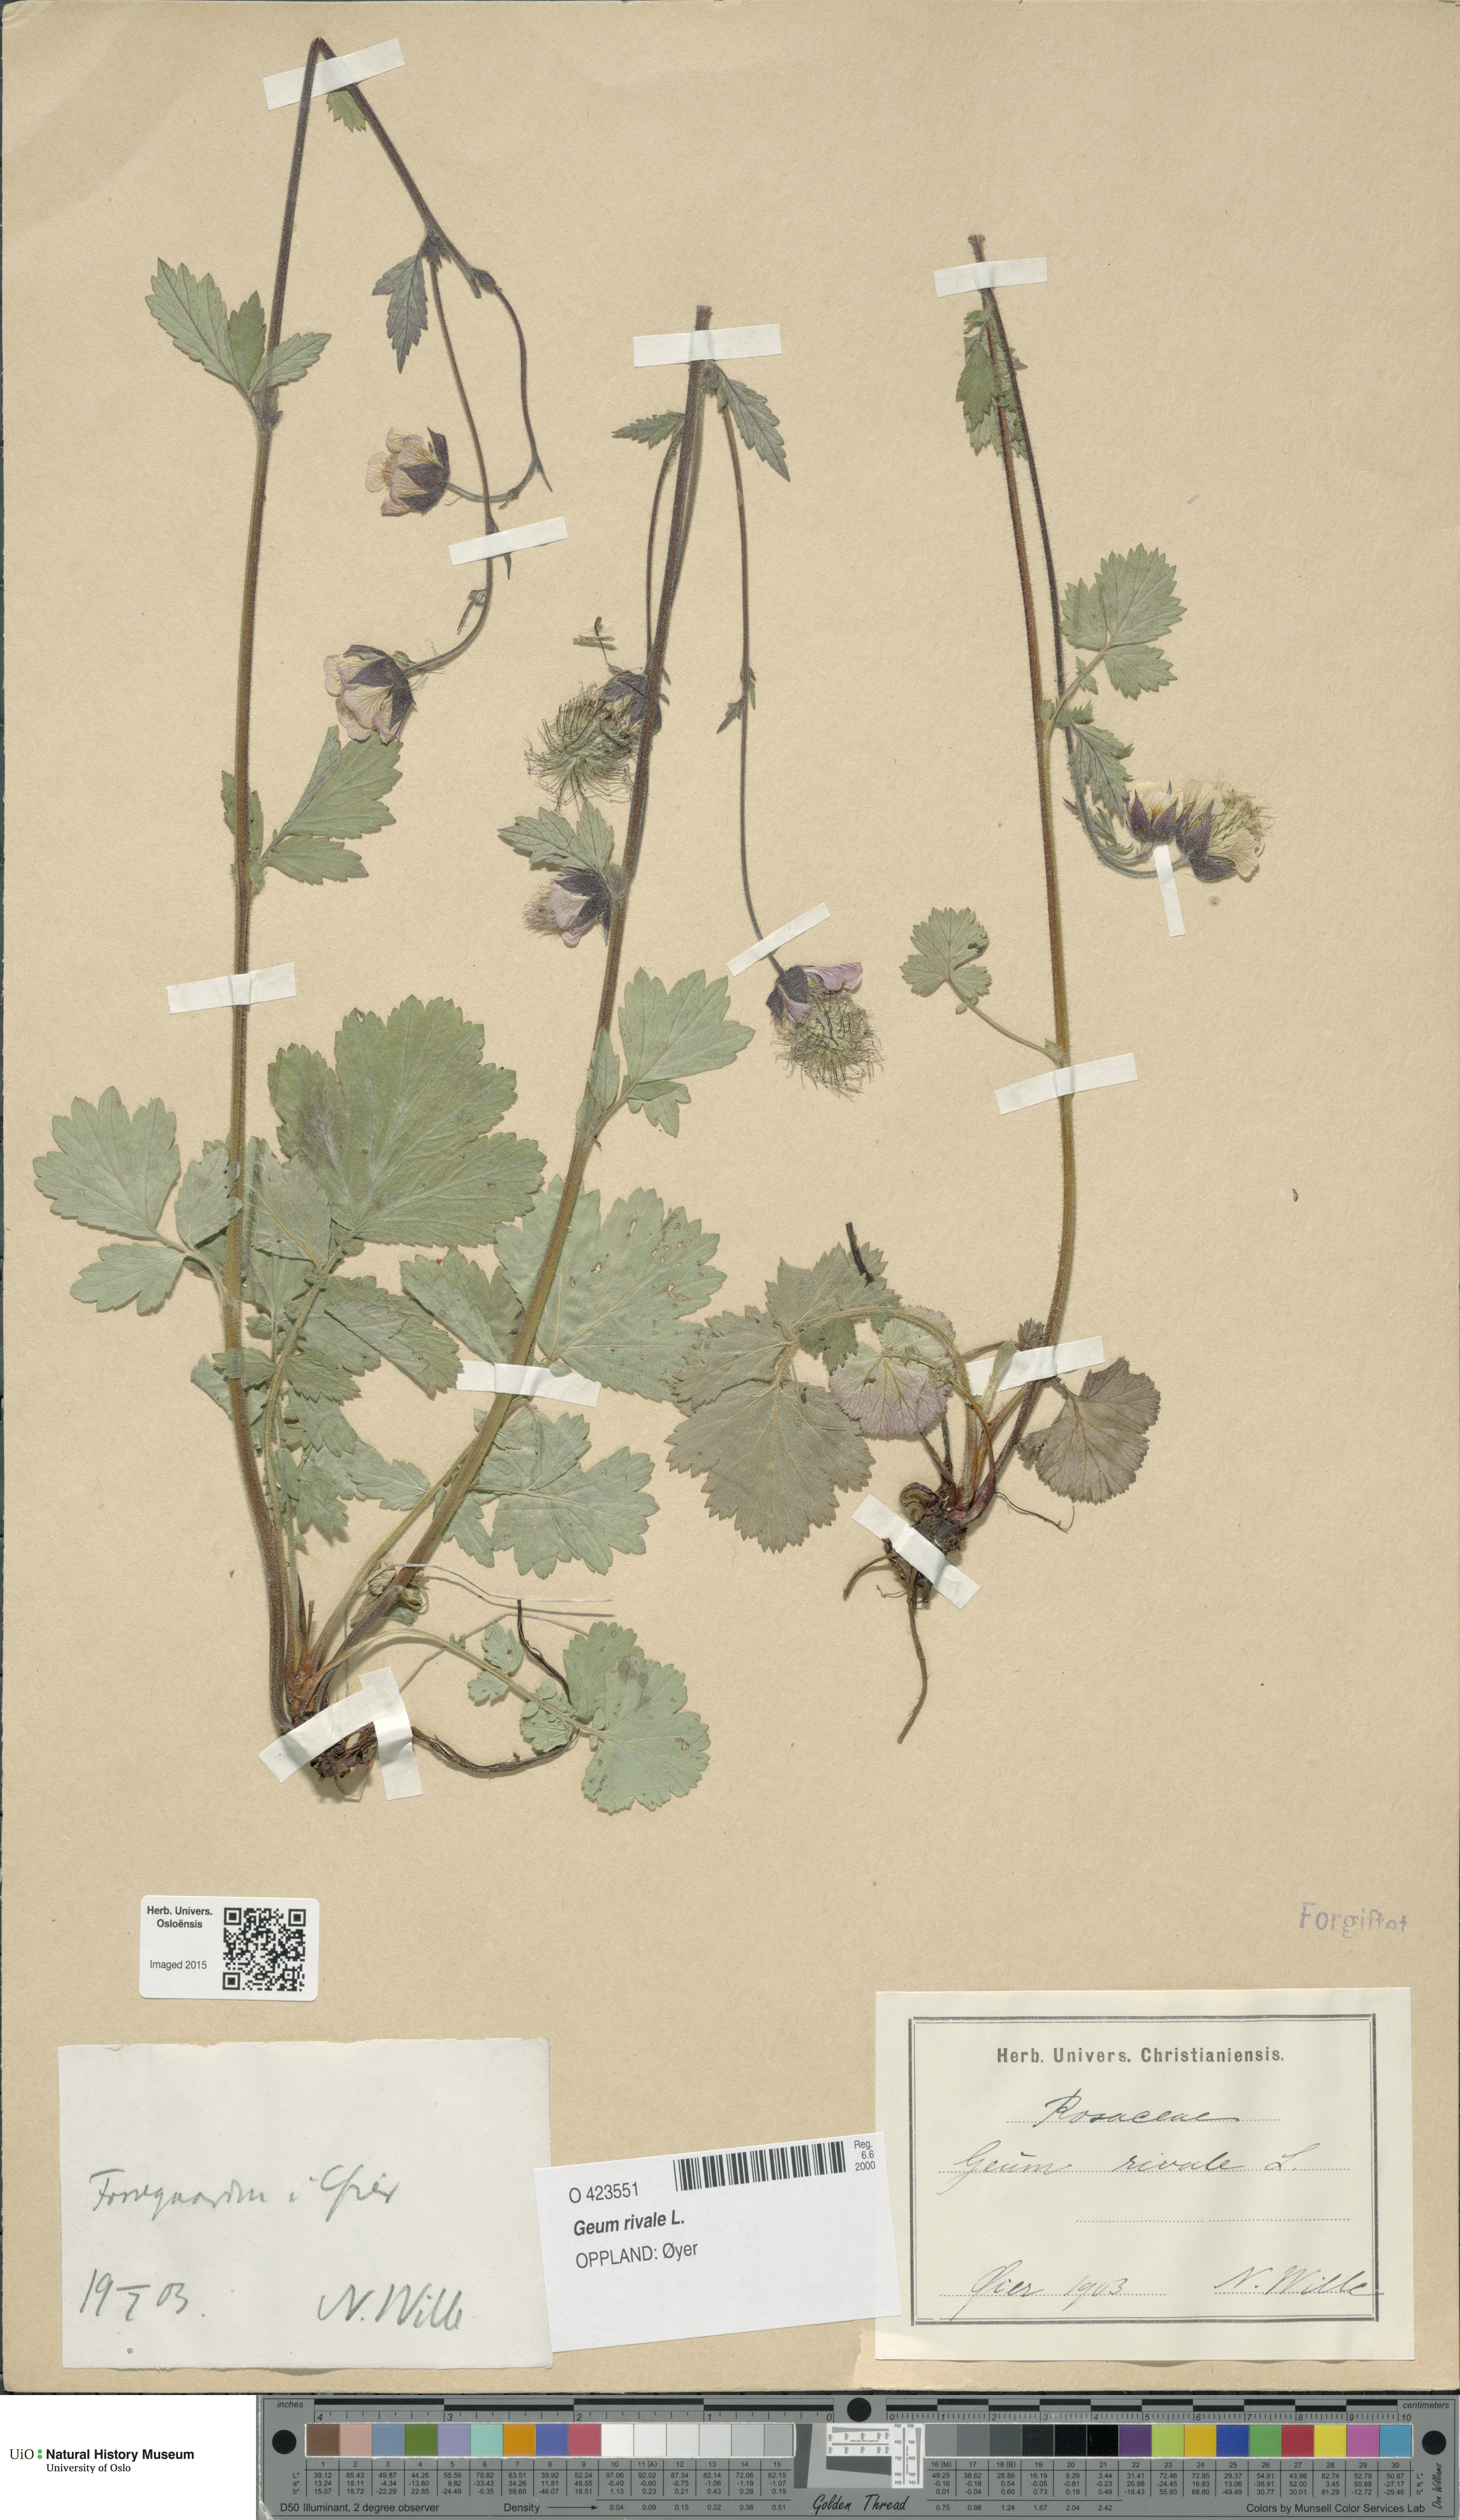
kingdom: Plantae
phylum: Tracheophyta
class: Magnoliopsida
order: Rosales
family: Rosaceae
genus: Geum
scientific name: Geum rivale
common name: Water avens
